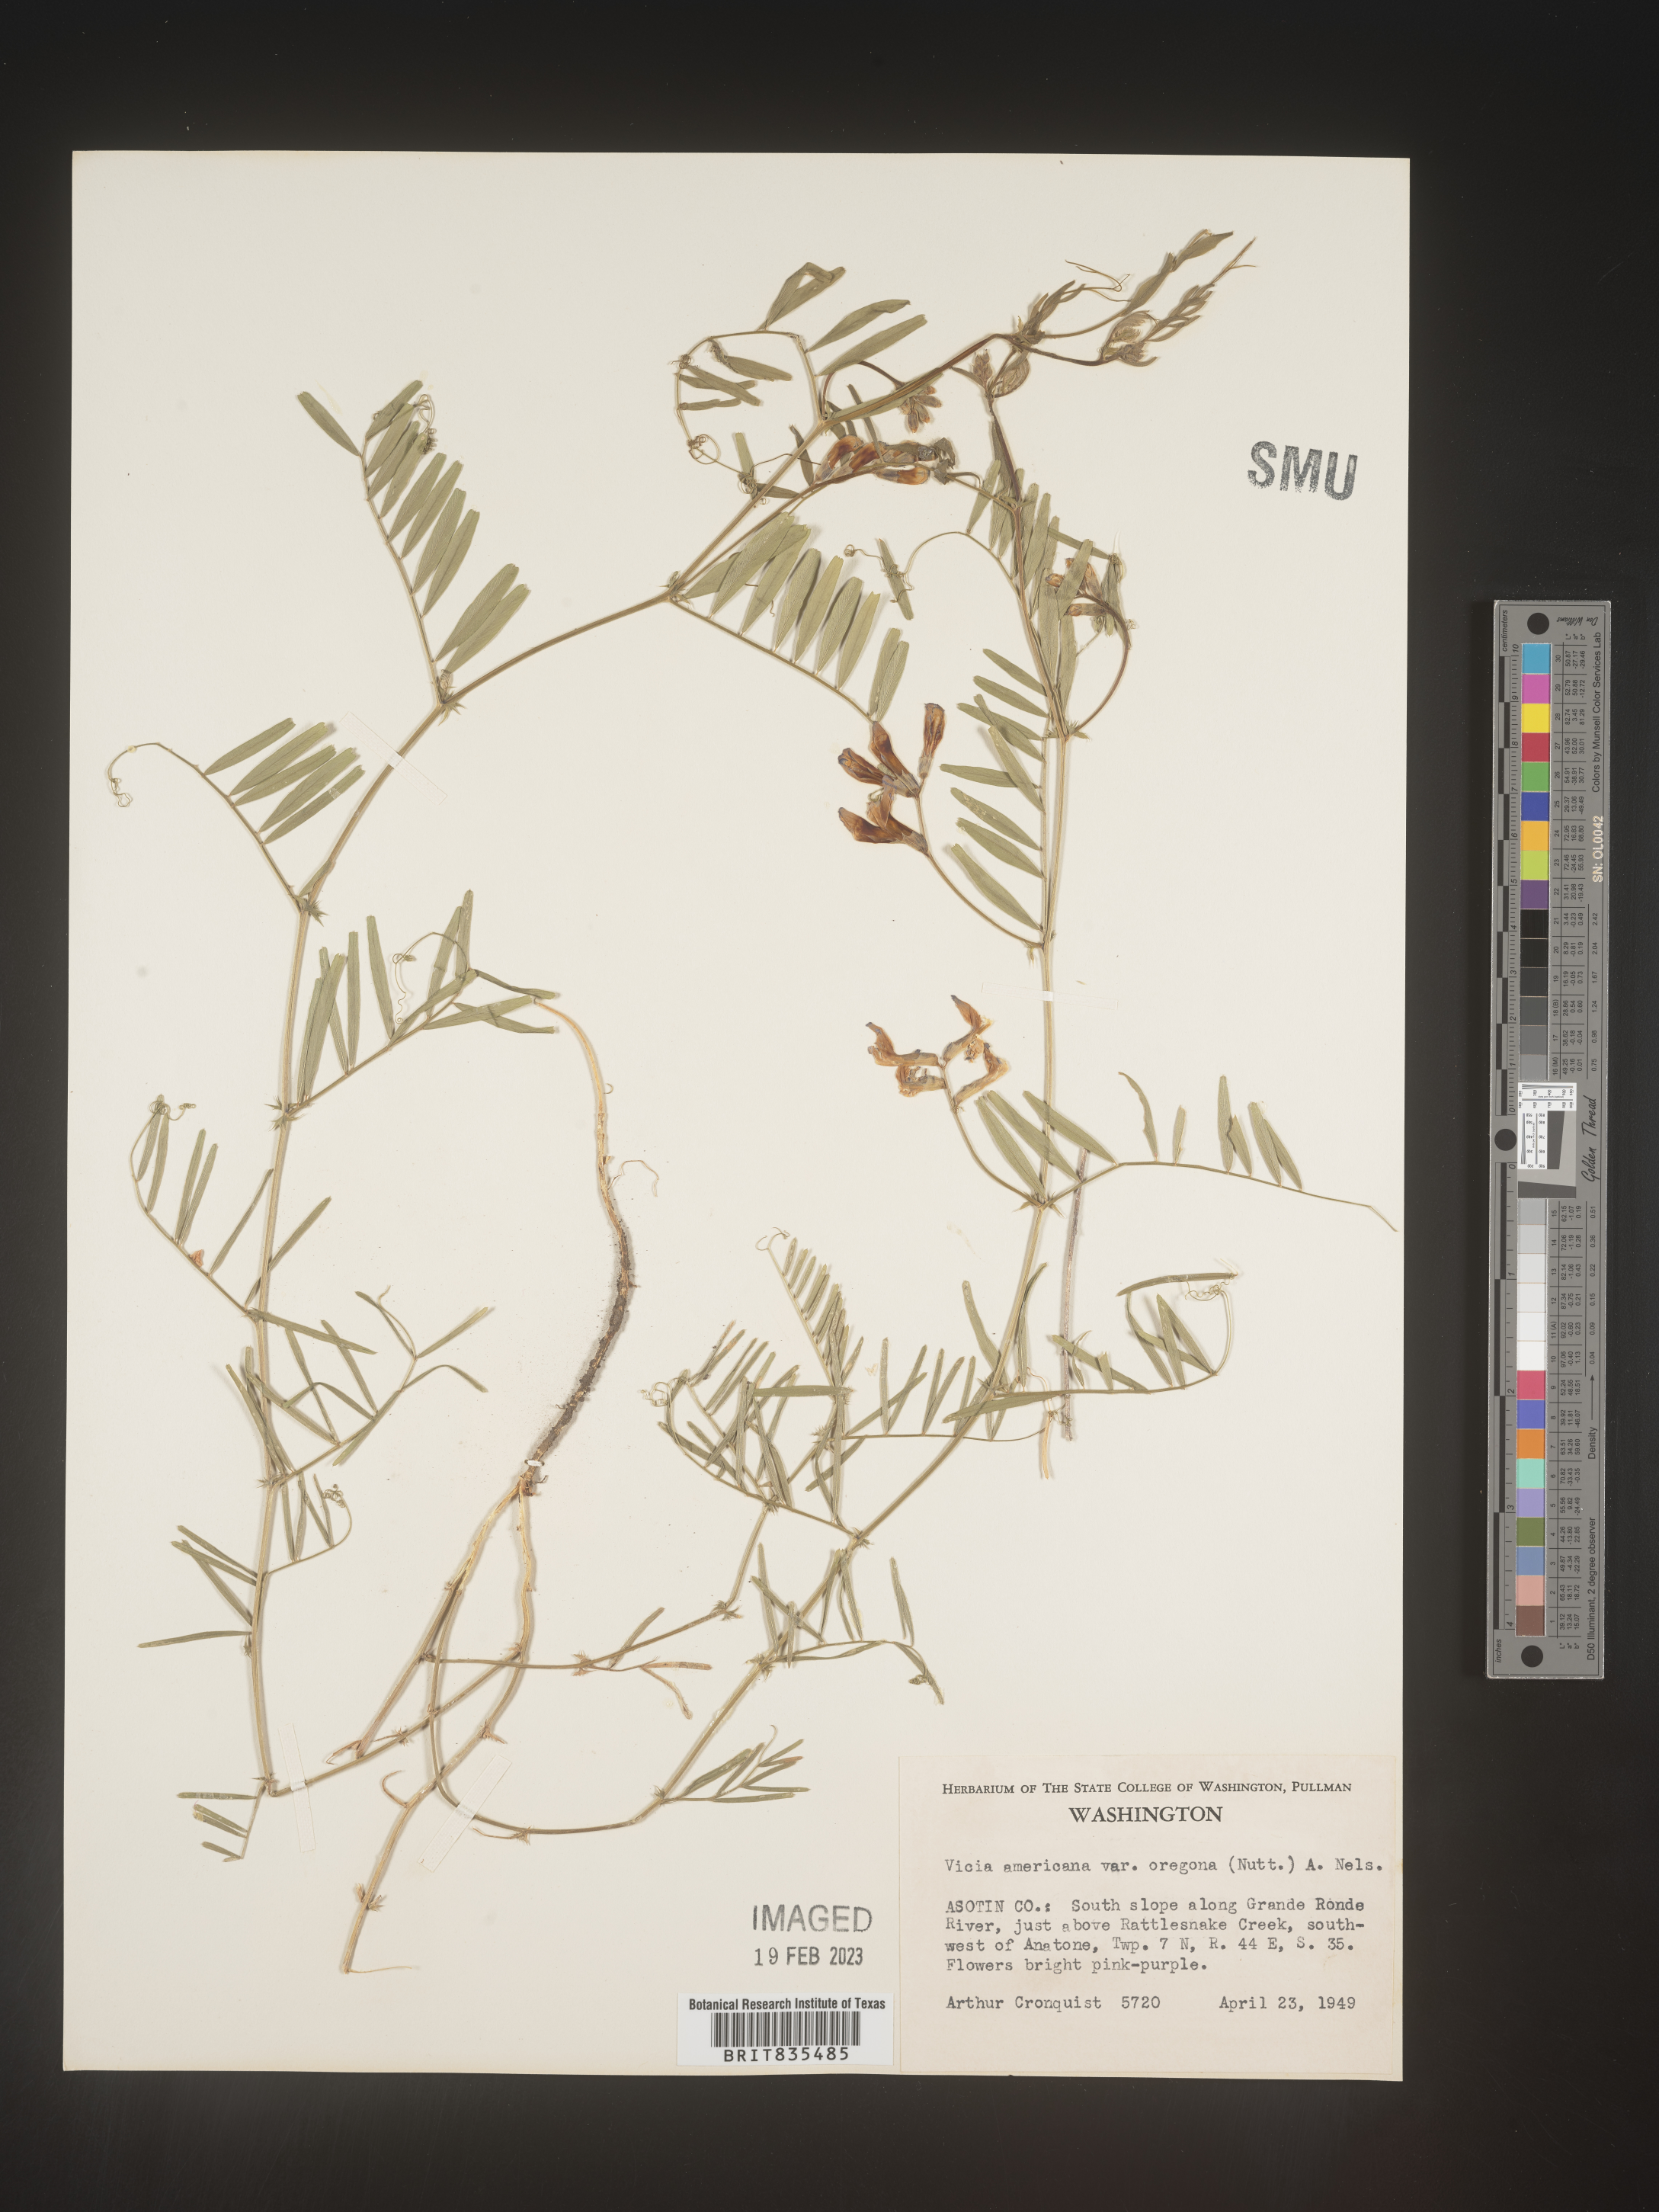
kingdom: Plantae
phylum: Tracheophyta
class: Magnoliopsida
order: Fabales
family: Fabaceae
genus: Vicia
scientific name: Vicia americana
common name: American vetch
